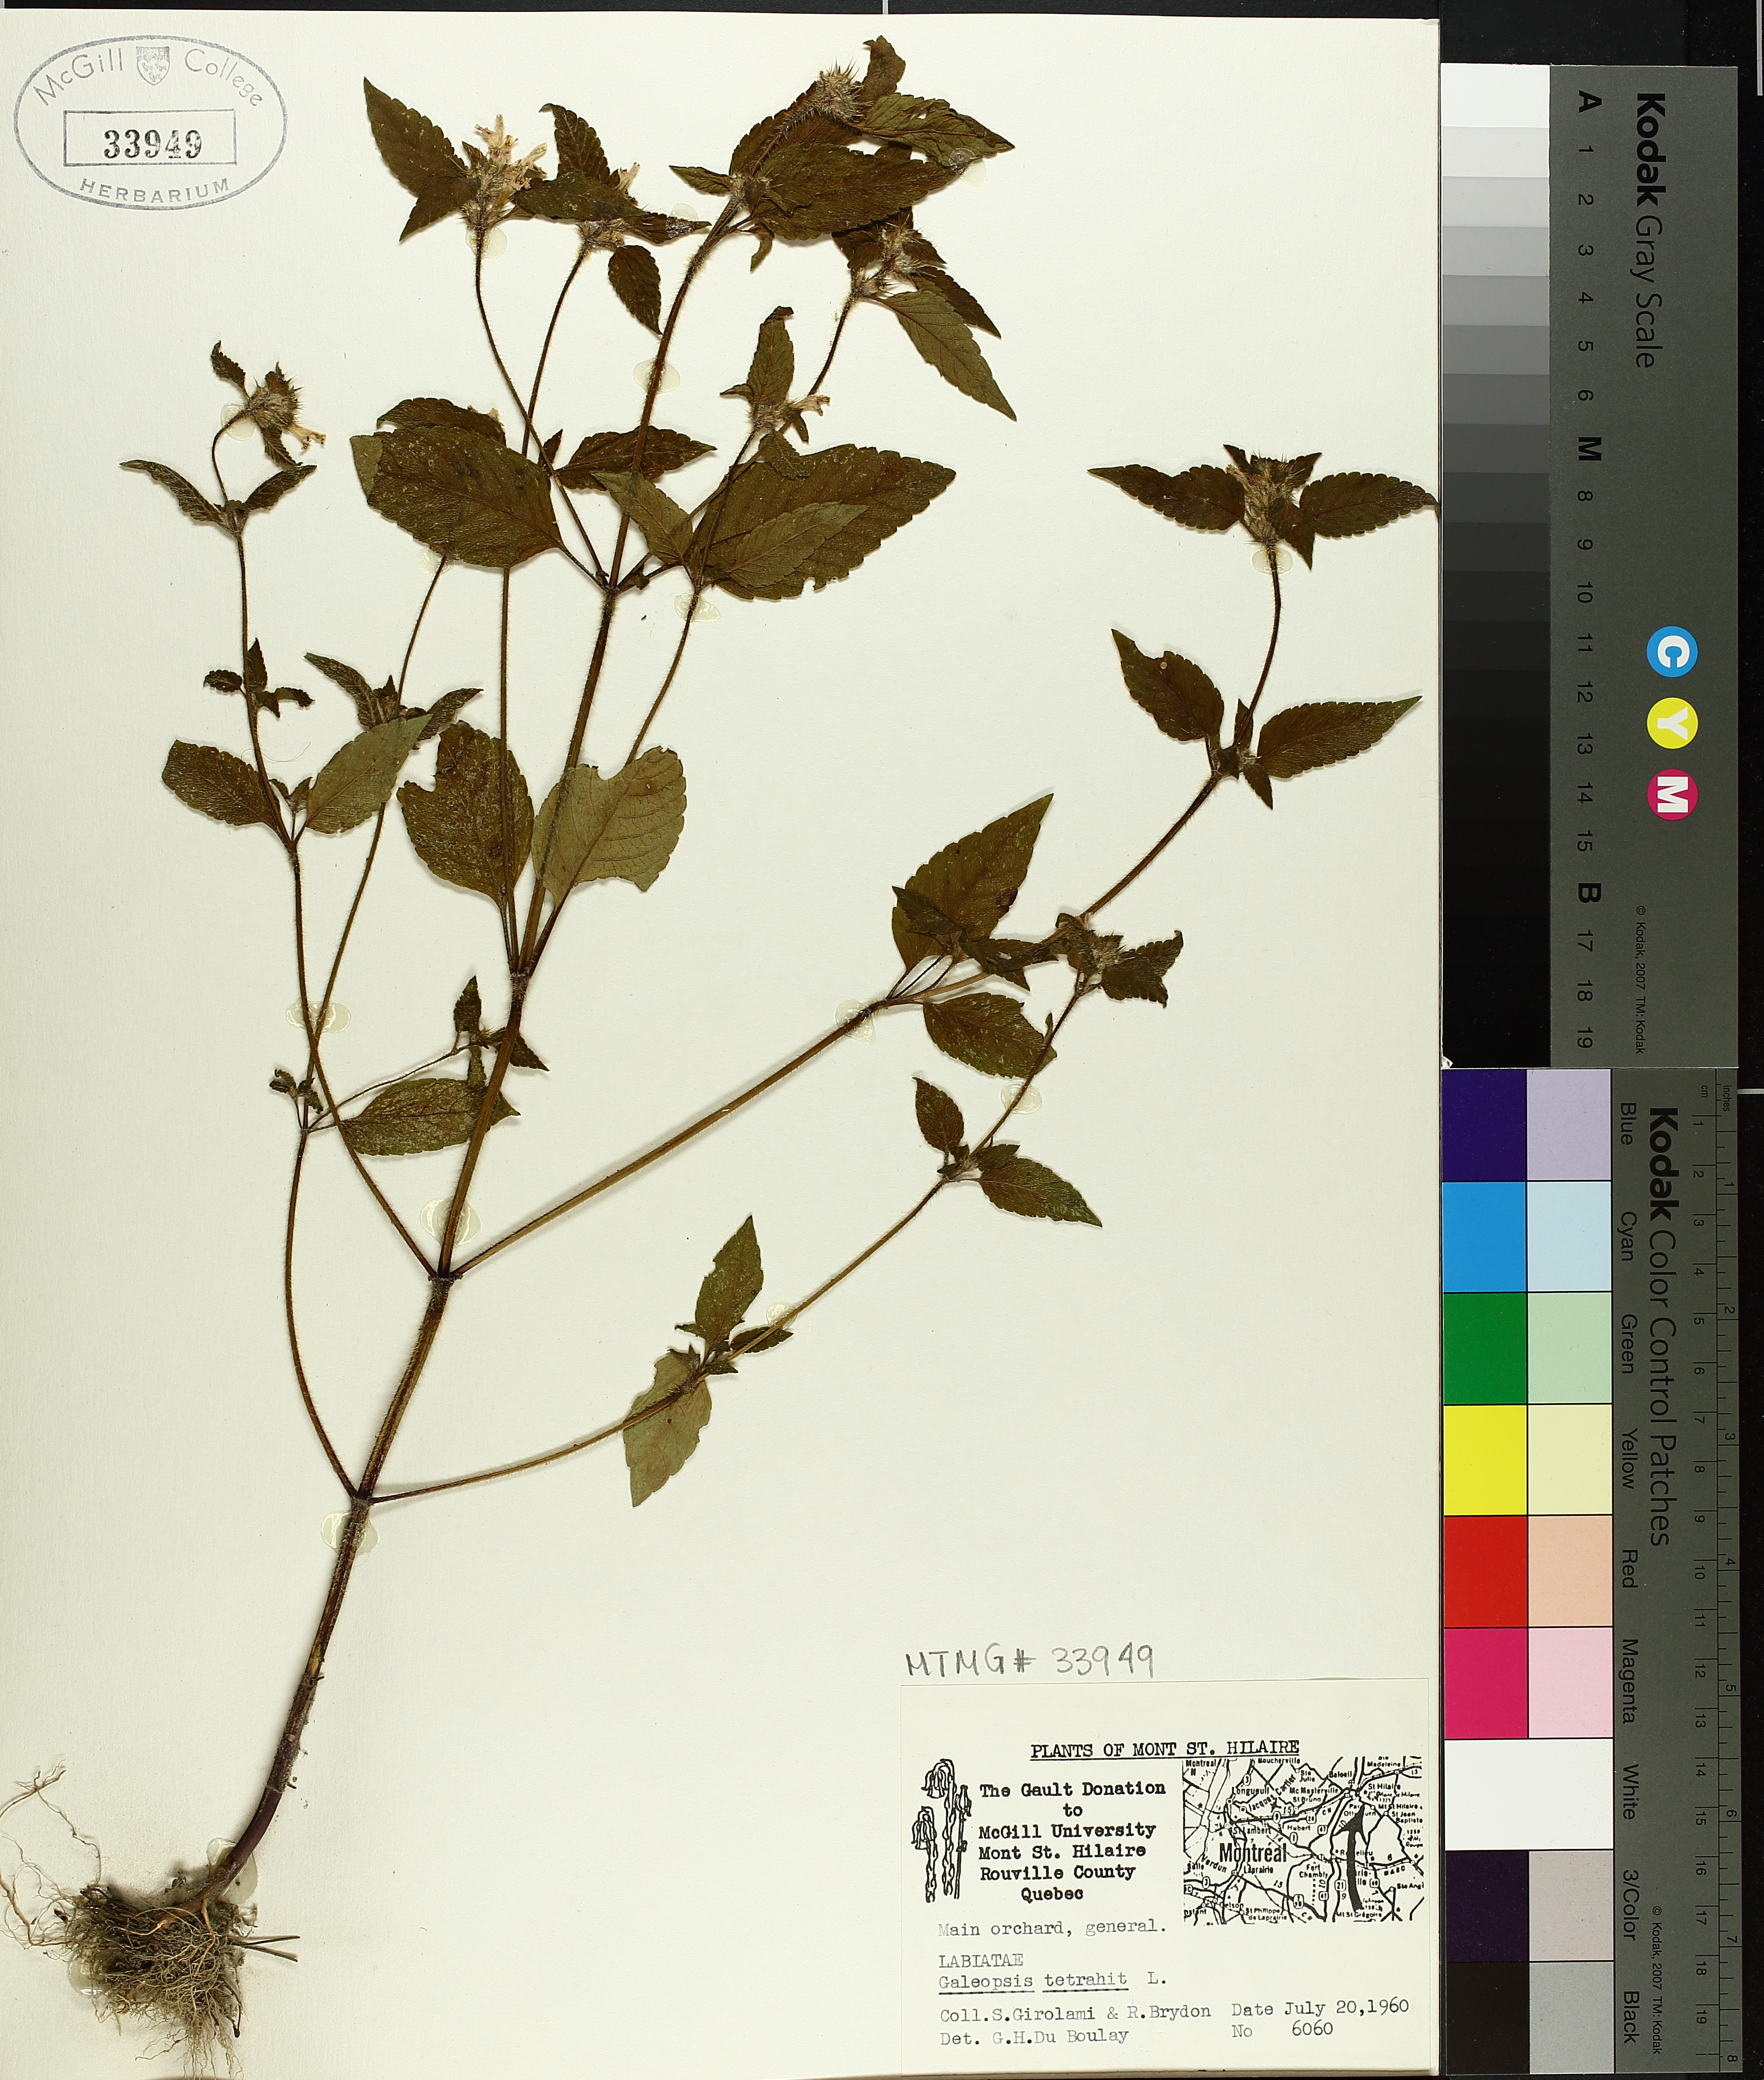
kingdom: Plantae
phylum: Tracheophyta
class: Magnoliopsida
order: Lamiales
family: Lamiaceae
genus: Galeopsis
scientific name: Galeopsis tetrahit
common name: Common hemp-nettle
